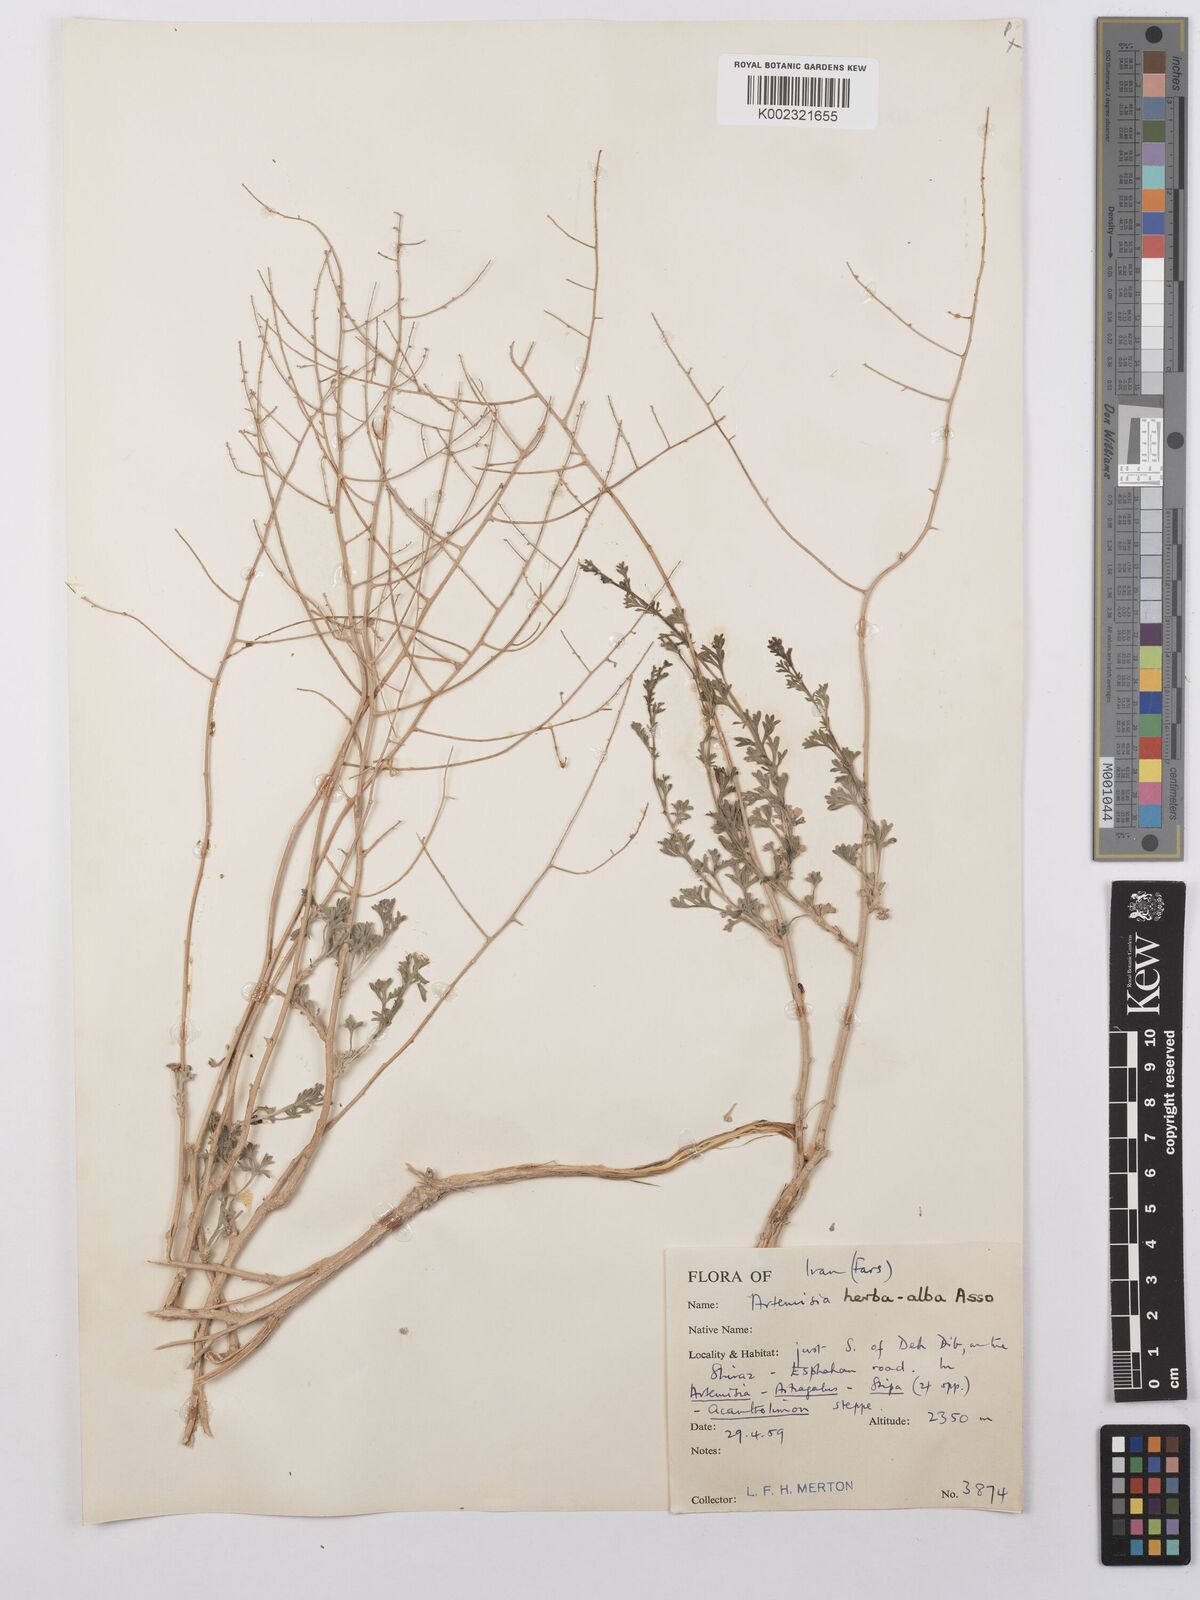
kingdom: Plantae
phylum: Tracheophyta
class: Magnoliopsida
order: Asterales
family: Asteraceae
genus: Artemisia
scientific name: Artemisia herba-alba
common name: White wormwood
